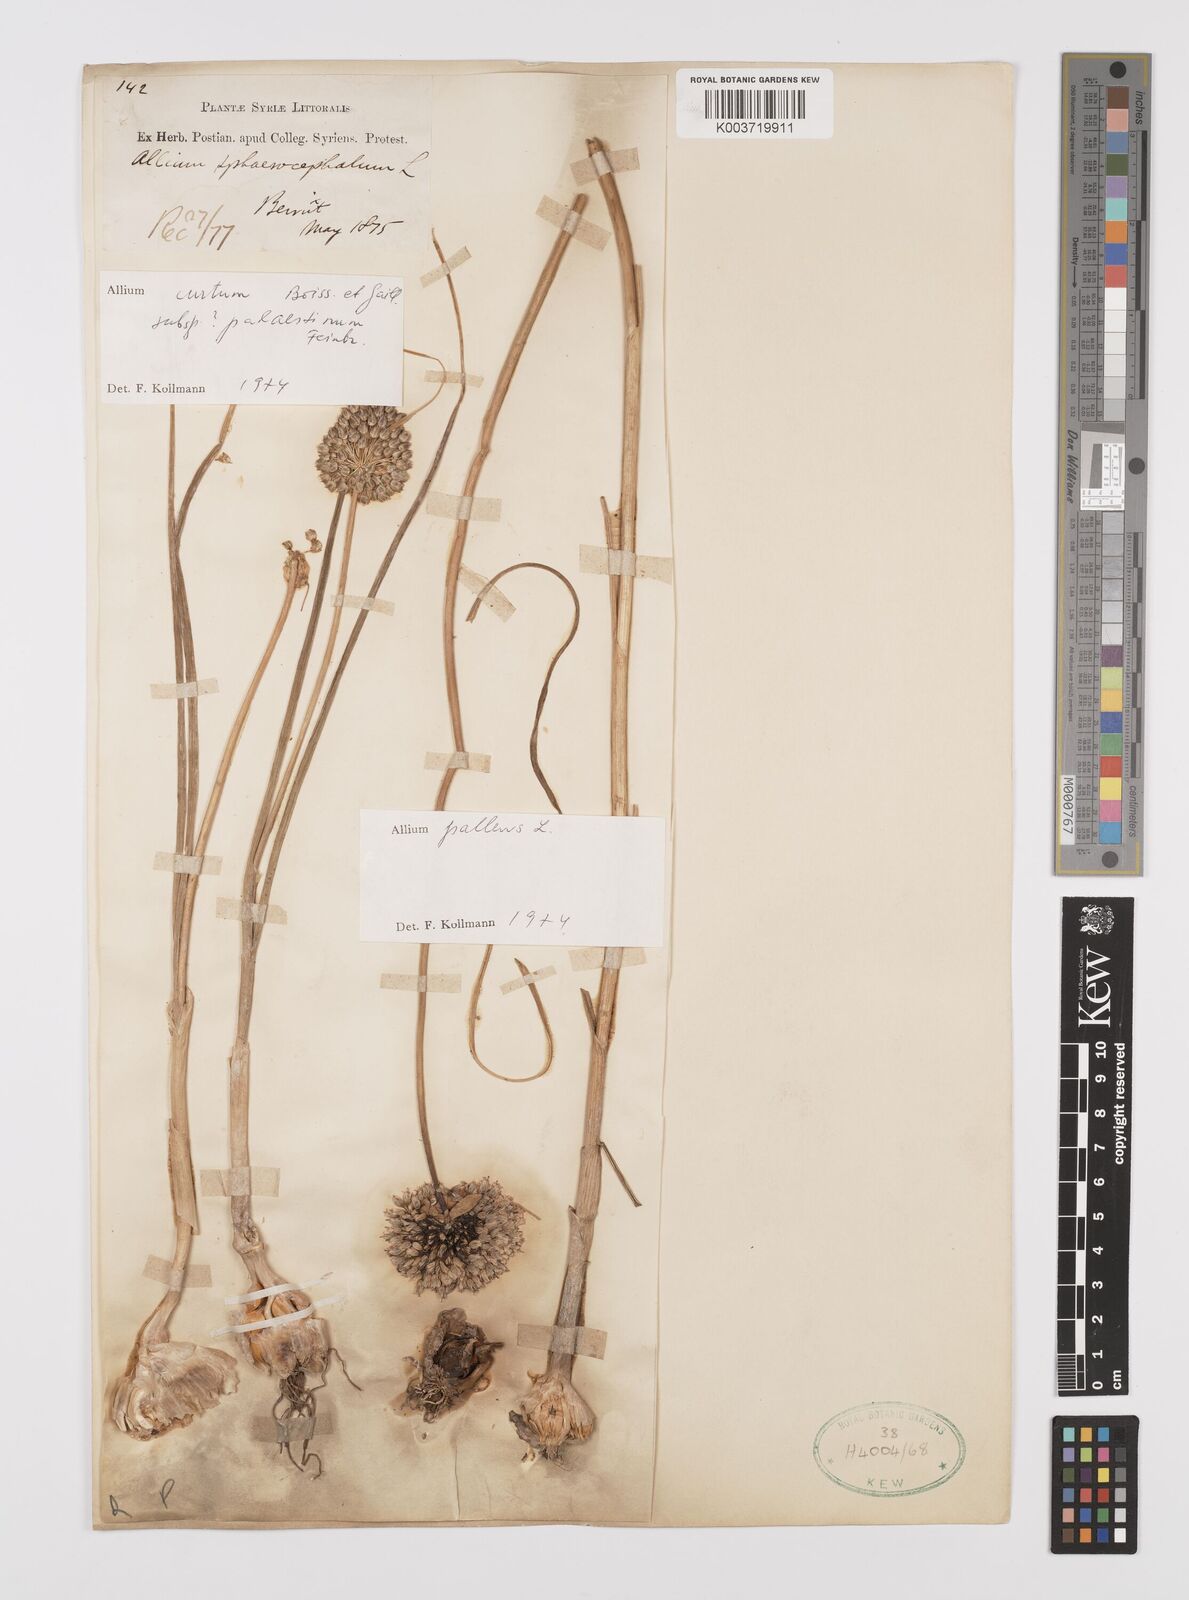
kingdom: Plantae
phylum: Tracheophyta
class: Liliopsida
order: Asparagales
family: Amaryllidaceae
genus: Allium
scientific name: Allium pallens
